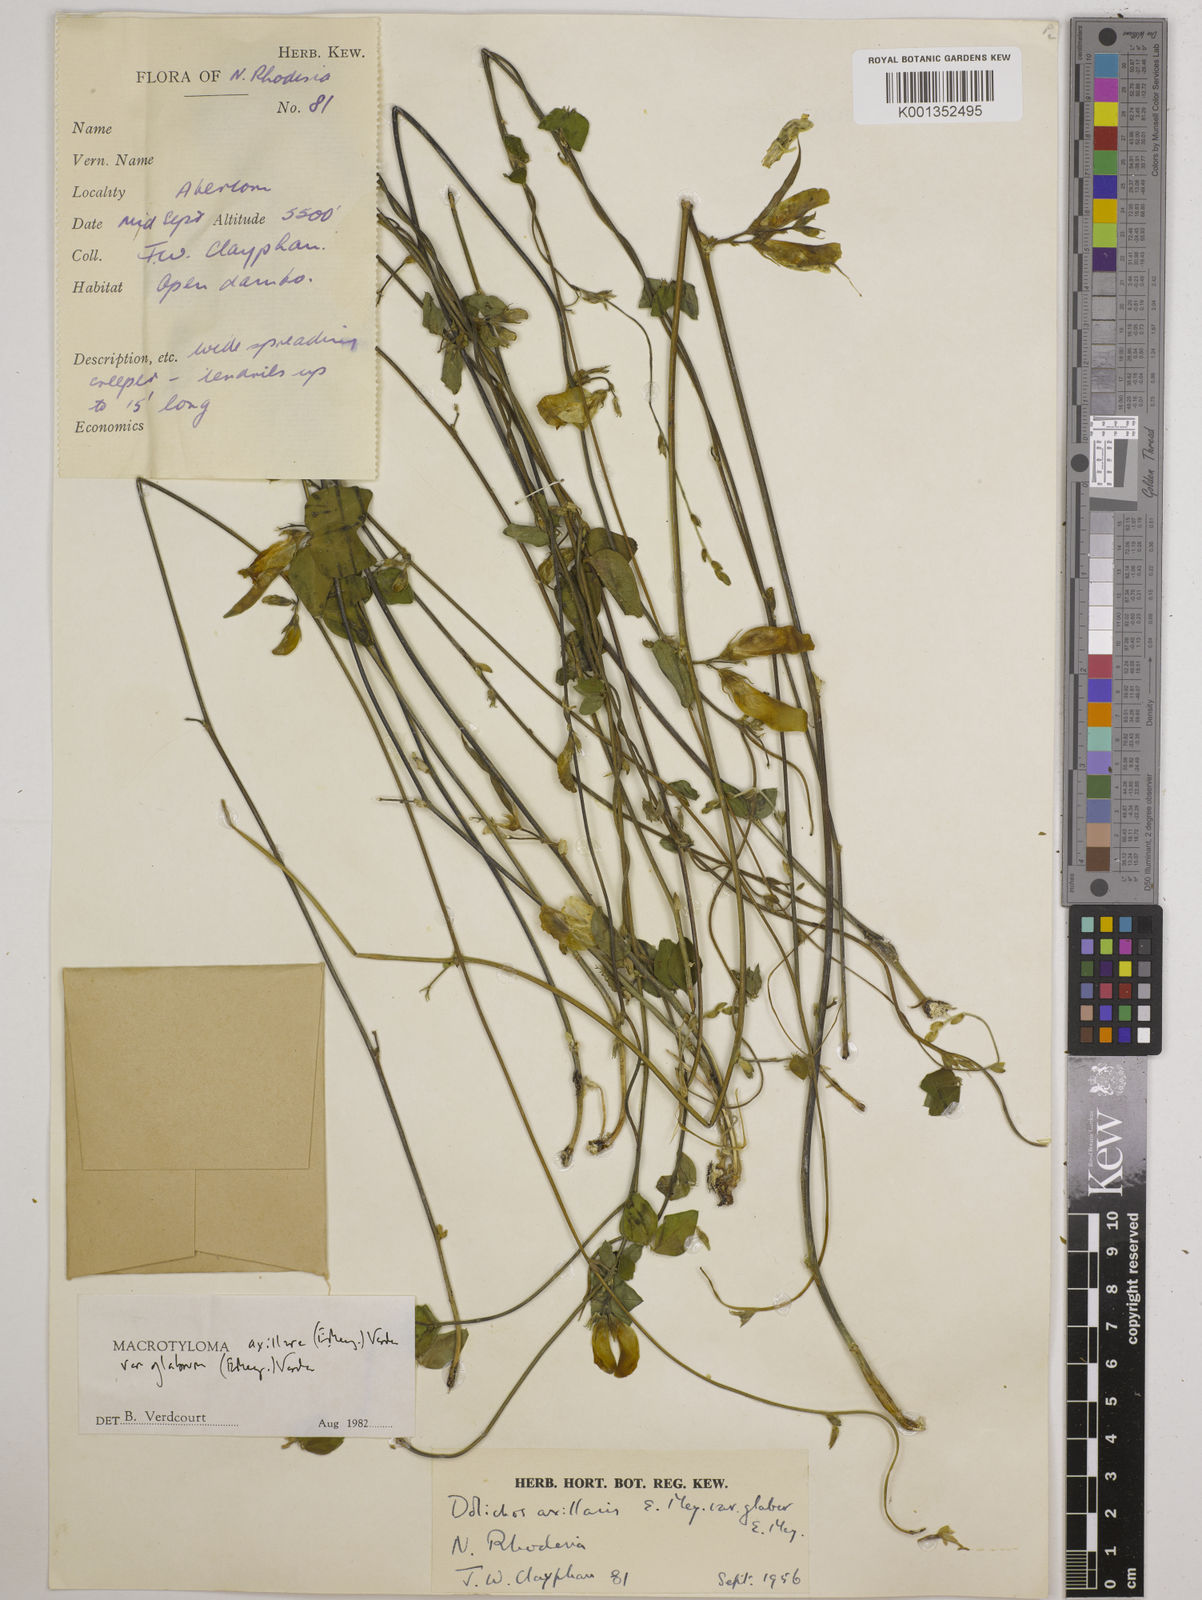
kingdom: Plantae
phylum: Tracheophyta
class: Magnoliopsida
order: Fabales
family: Fabaceae
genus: Macrotyloma
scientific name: Macrotyloma
